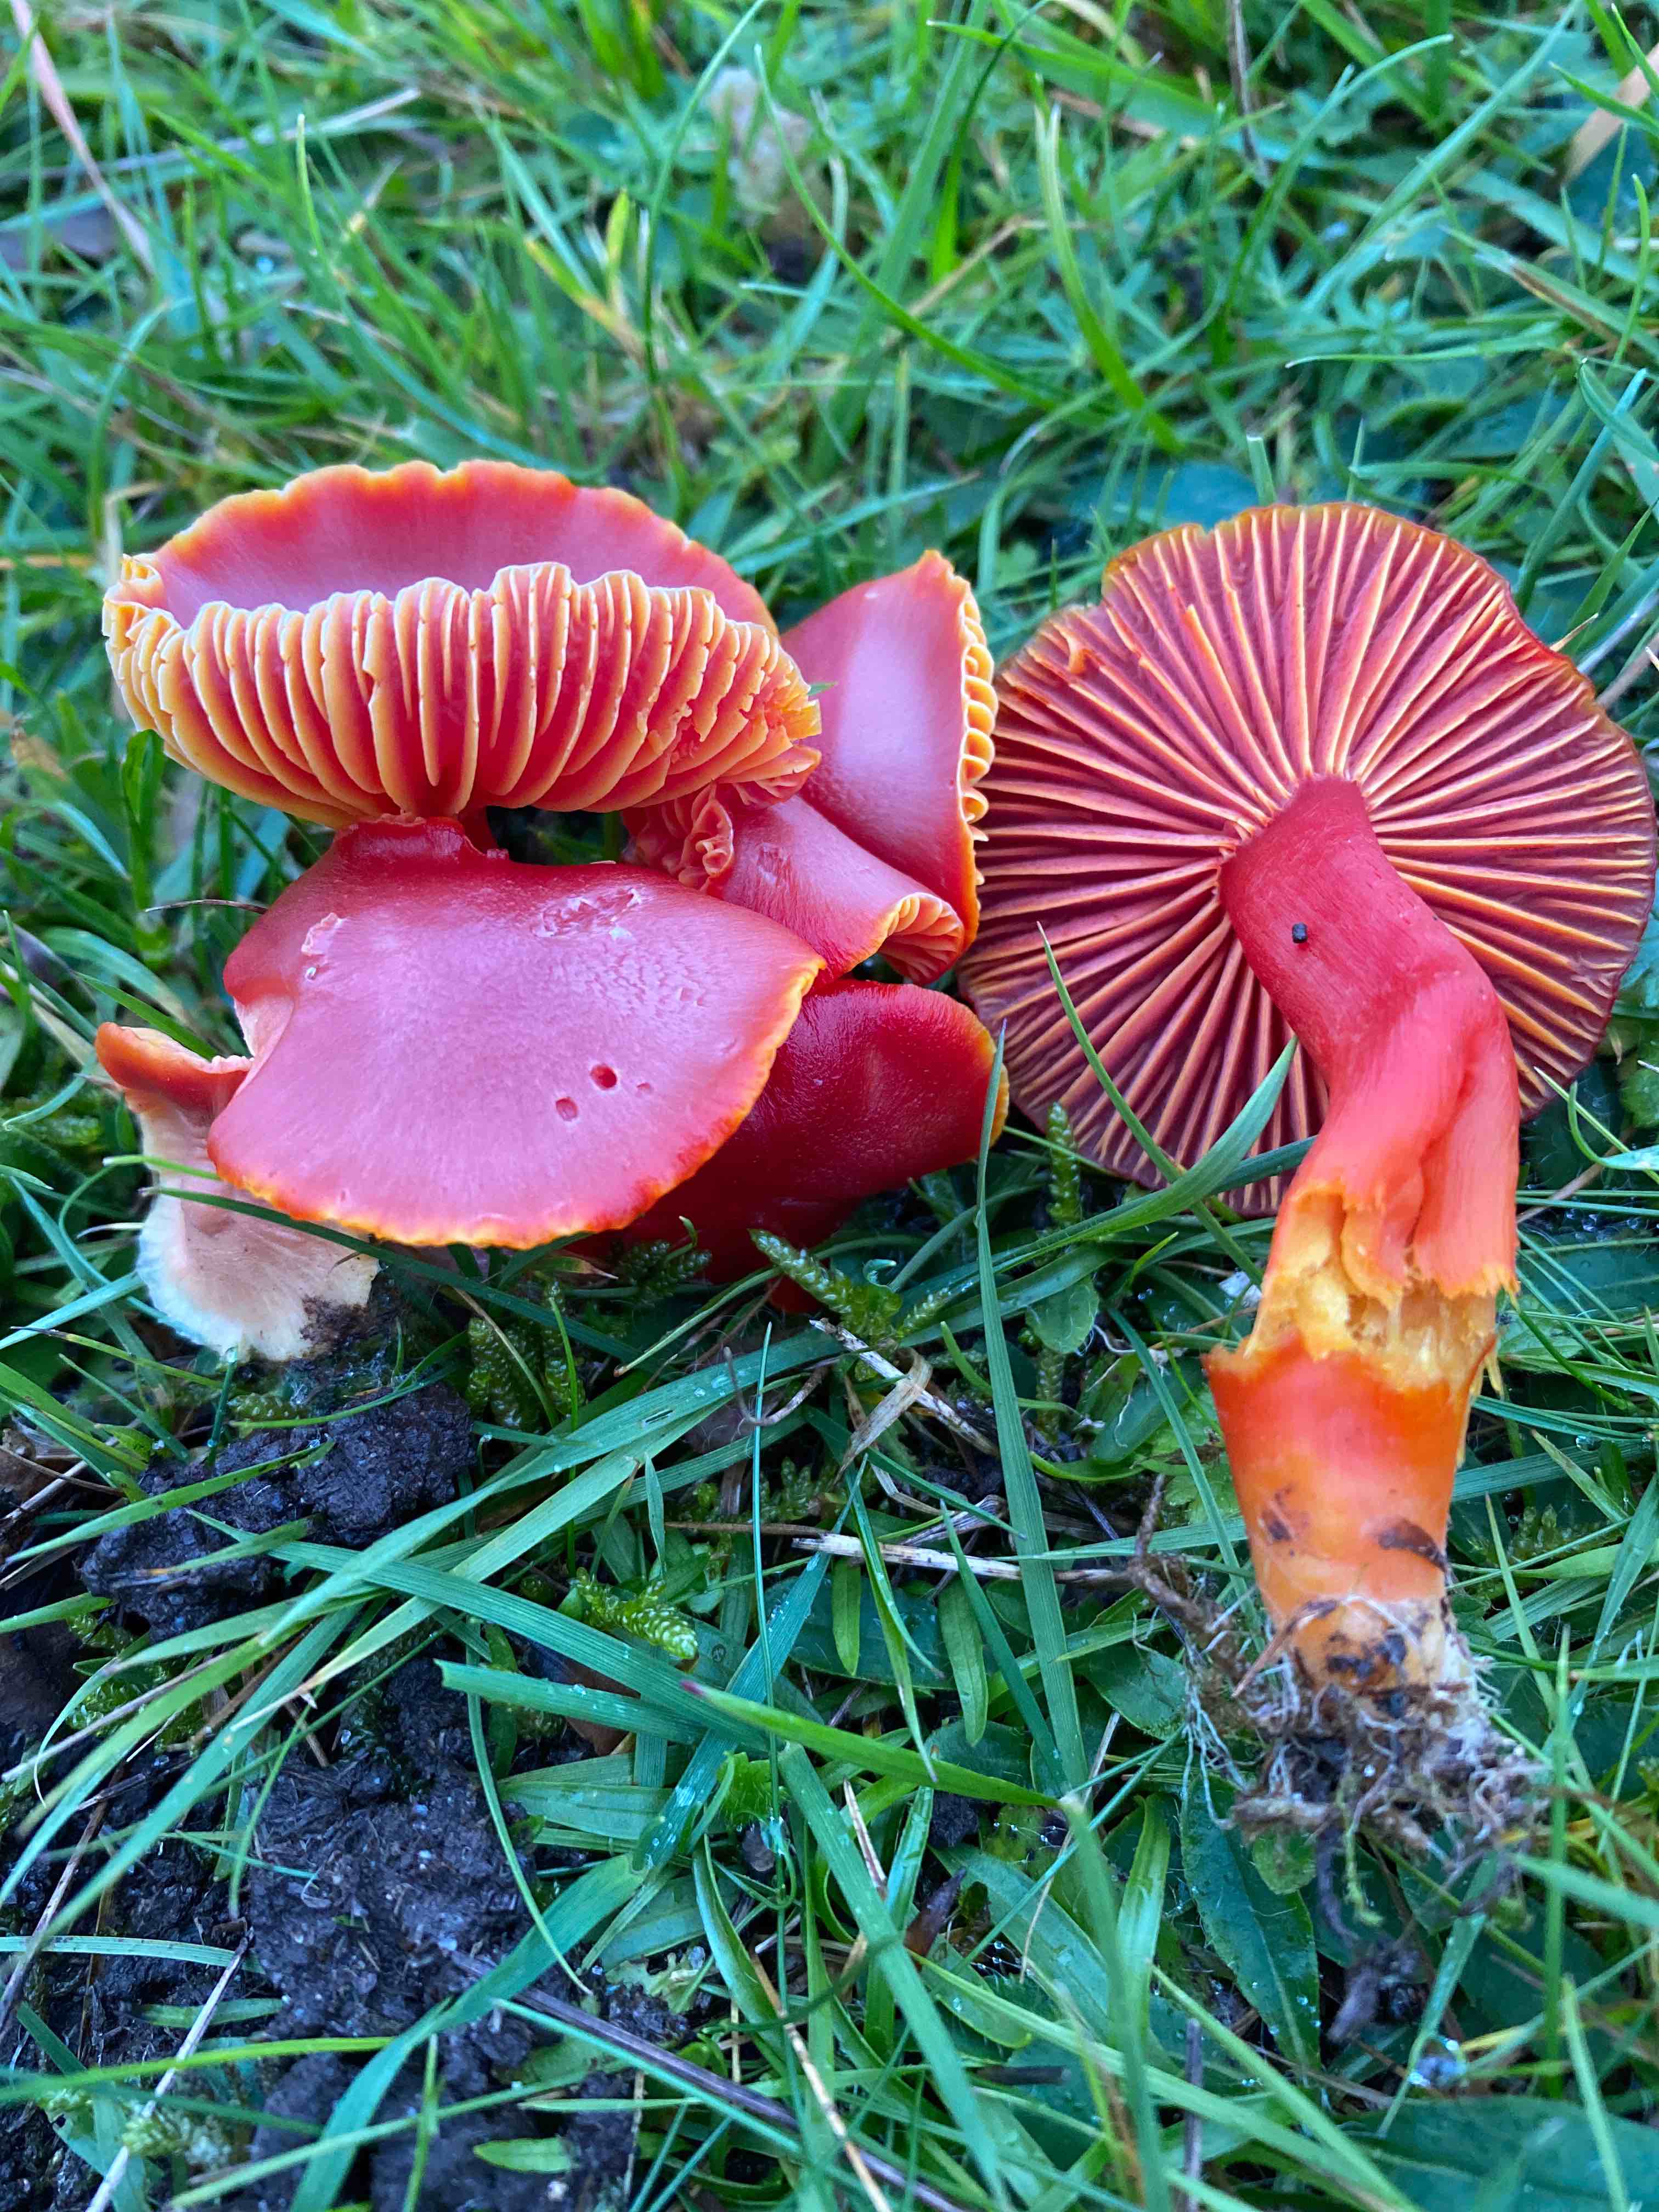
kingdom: Fungi
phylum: Basidiomycota
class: Agaricomycetes
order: Agaricales
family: Hygrophoraceae
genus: Hygrocybe
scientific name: Hygrocybe coccinea
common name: cinnober-vokshat
